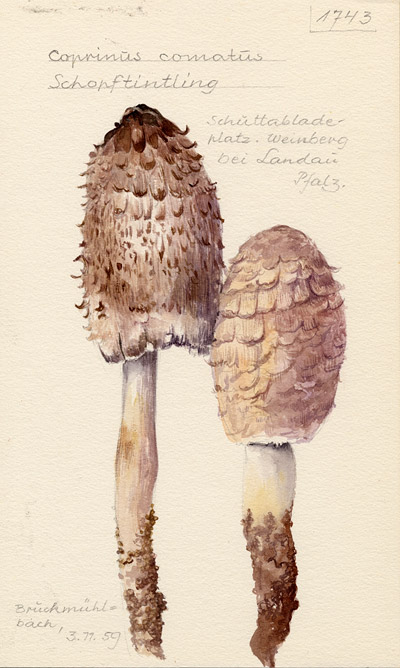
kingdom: Fungi
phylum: Basidiomycota
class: Agaricomycetes
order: Agaricales
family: Agaricaceae
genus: Coprinus
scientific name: Coprinus
